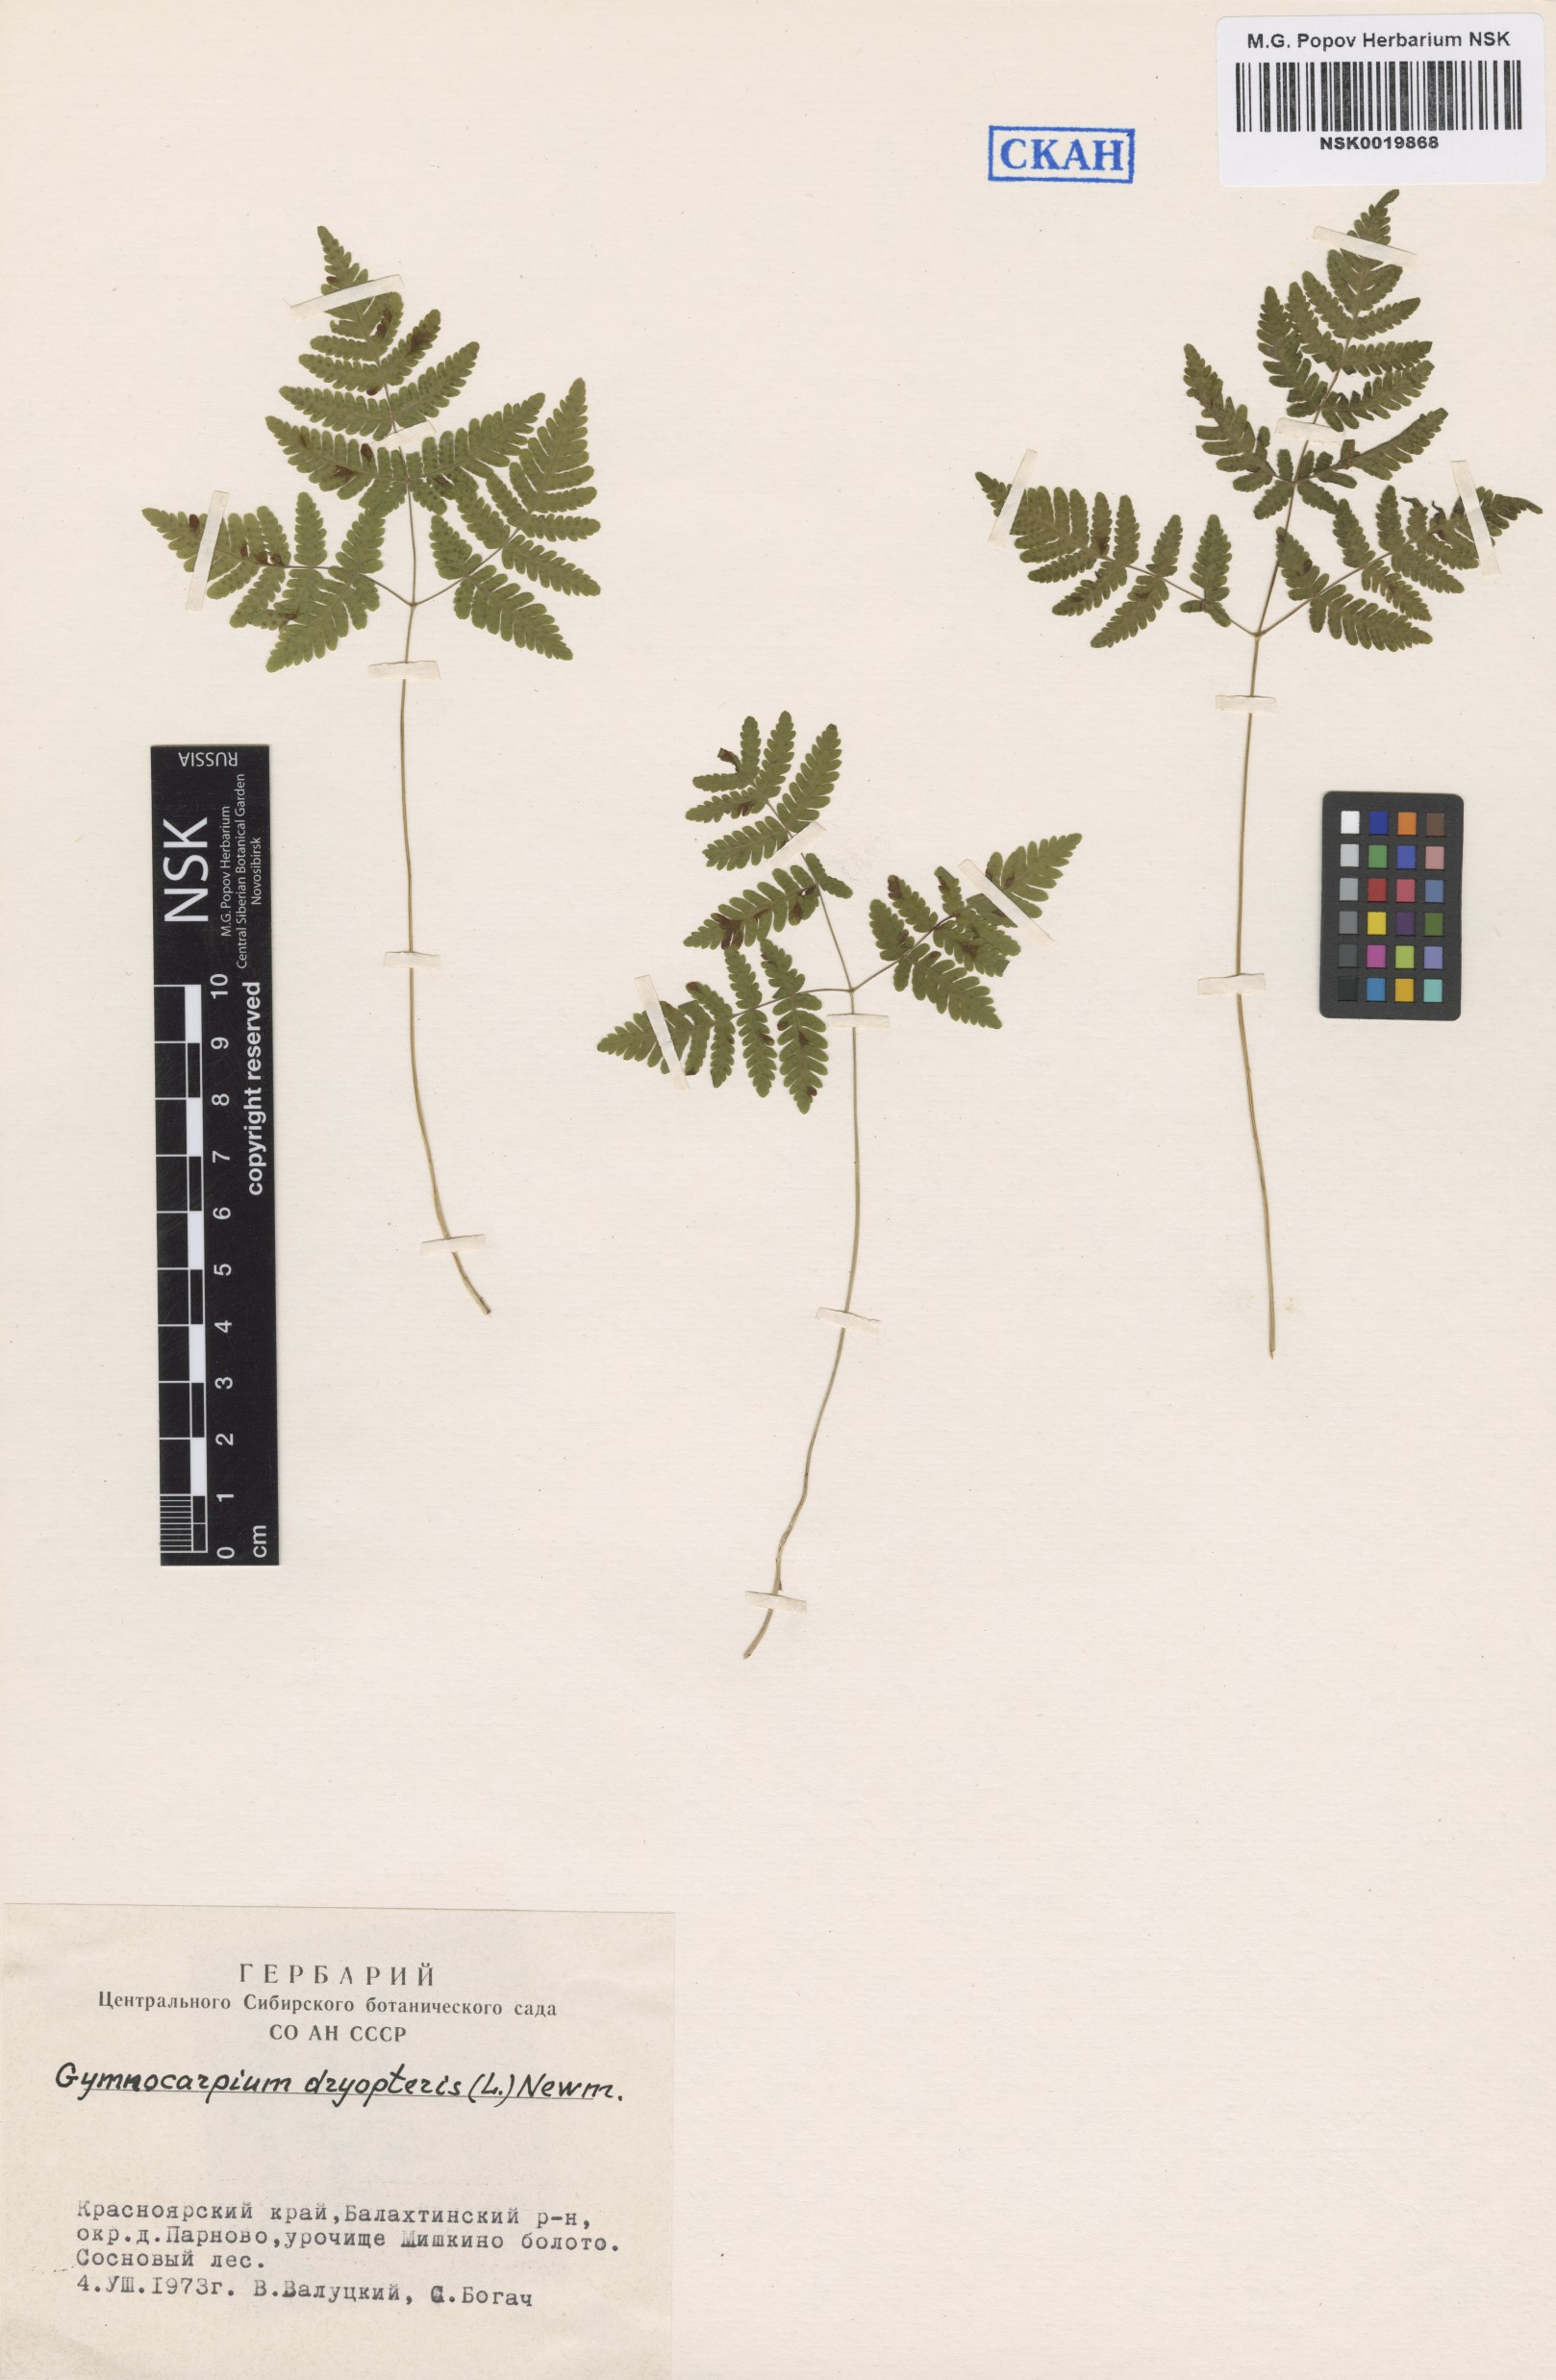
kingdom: Plantae
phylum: Tracheophyta
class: Polypodiopsida
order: Polypodiales
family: Cystopteridaceae
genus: Gymnocarpium
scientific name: Gymnocarpium dryopteris
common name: Oak fern
